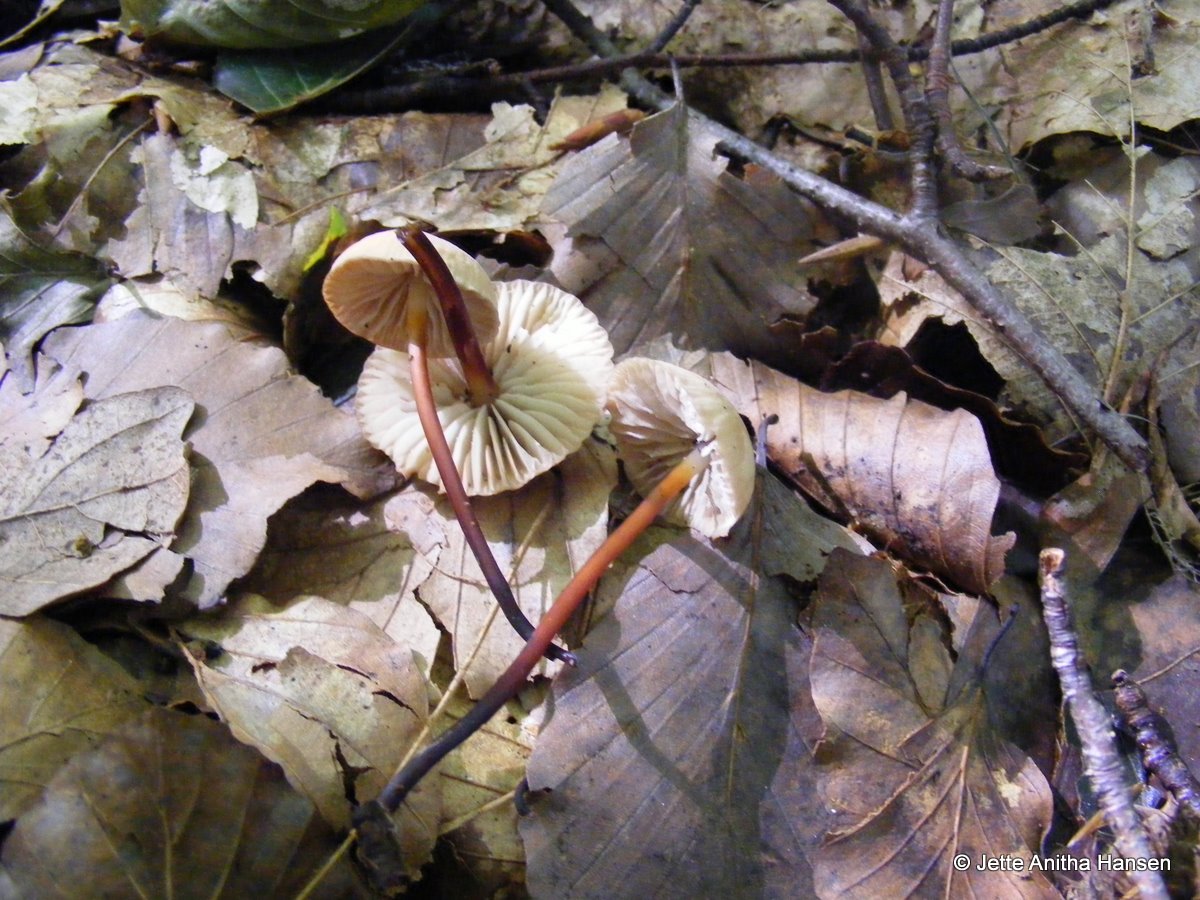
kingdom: Fungi
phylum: Basidiomycota
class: Agaricomycetes
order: Agaricales
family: Marasmiaceae
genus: Marasmius
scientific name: Marasmius wynneae
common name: hvælvet bruskhat
